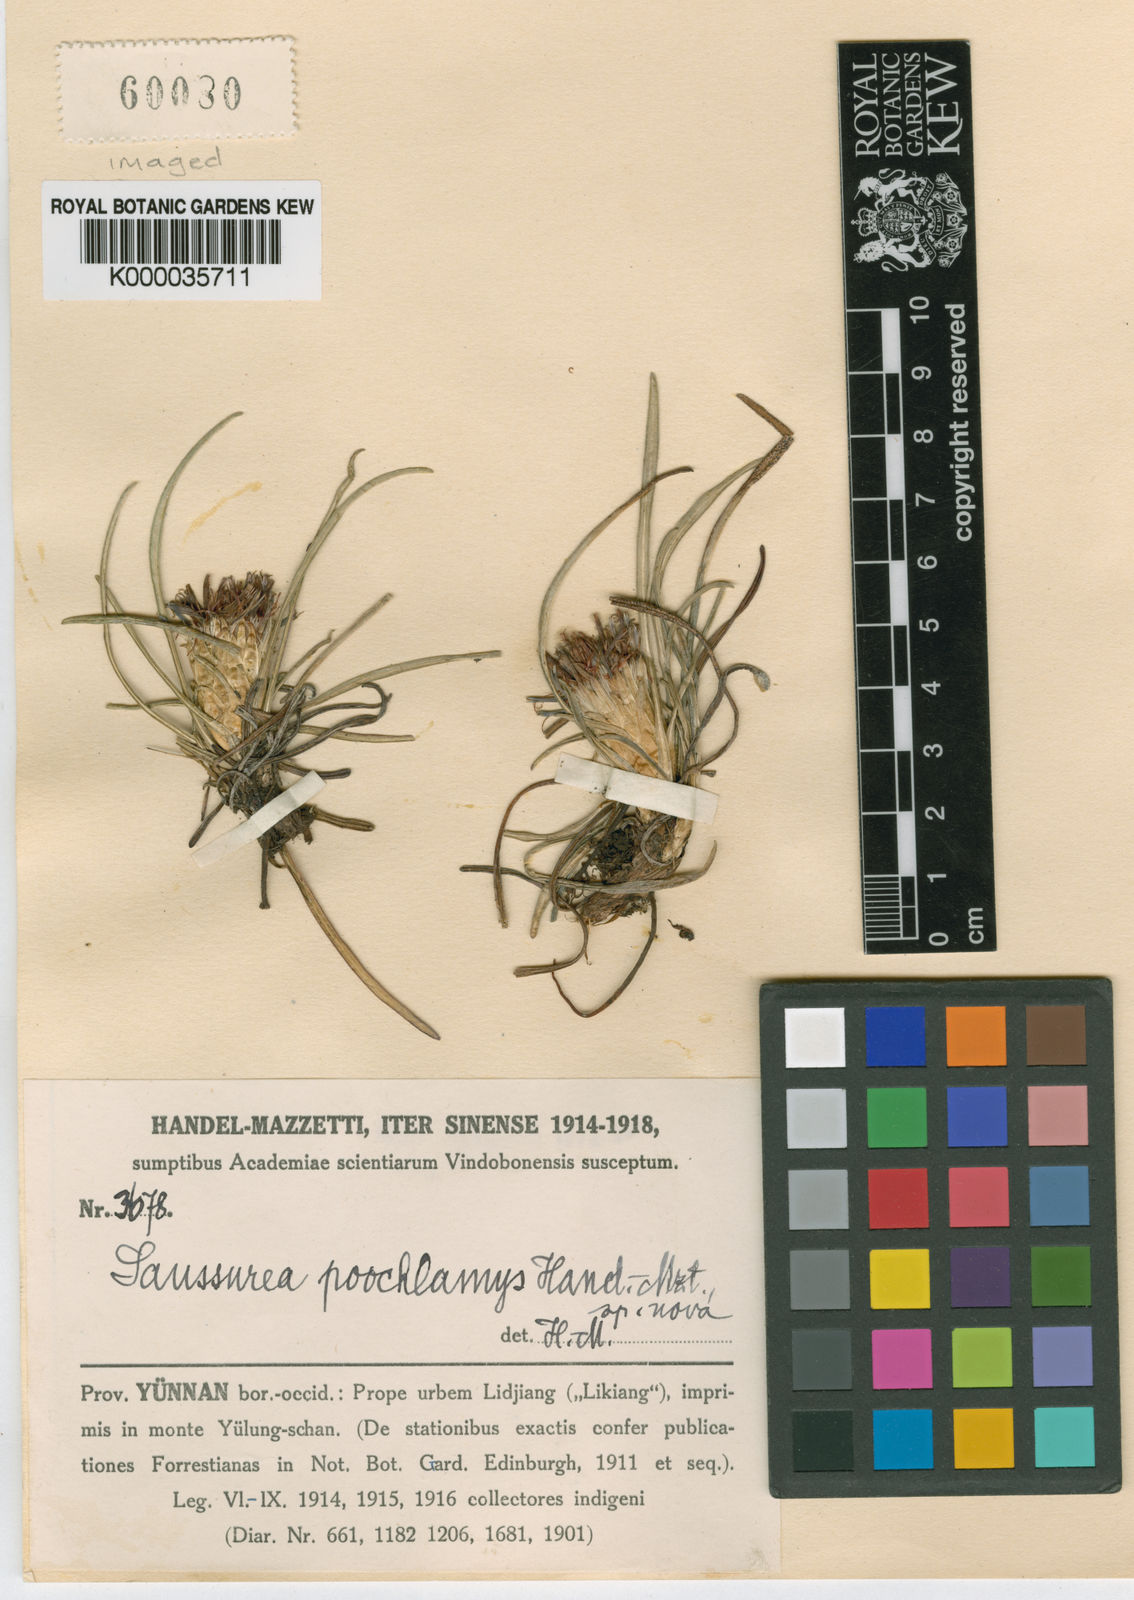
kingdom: Plantae
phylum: Tracheophyta
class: Magnoliopsida
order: Asterales
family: Asteraceae
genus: Saussurea
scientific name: Saussurea poochlamys
